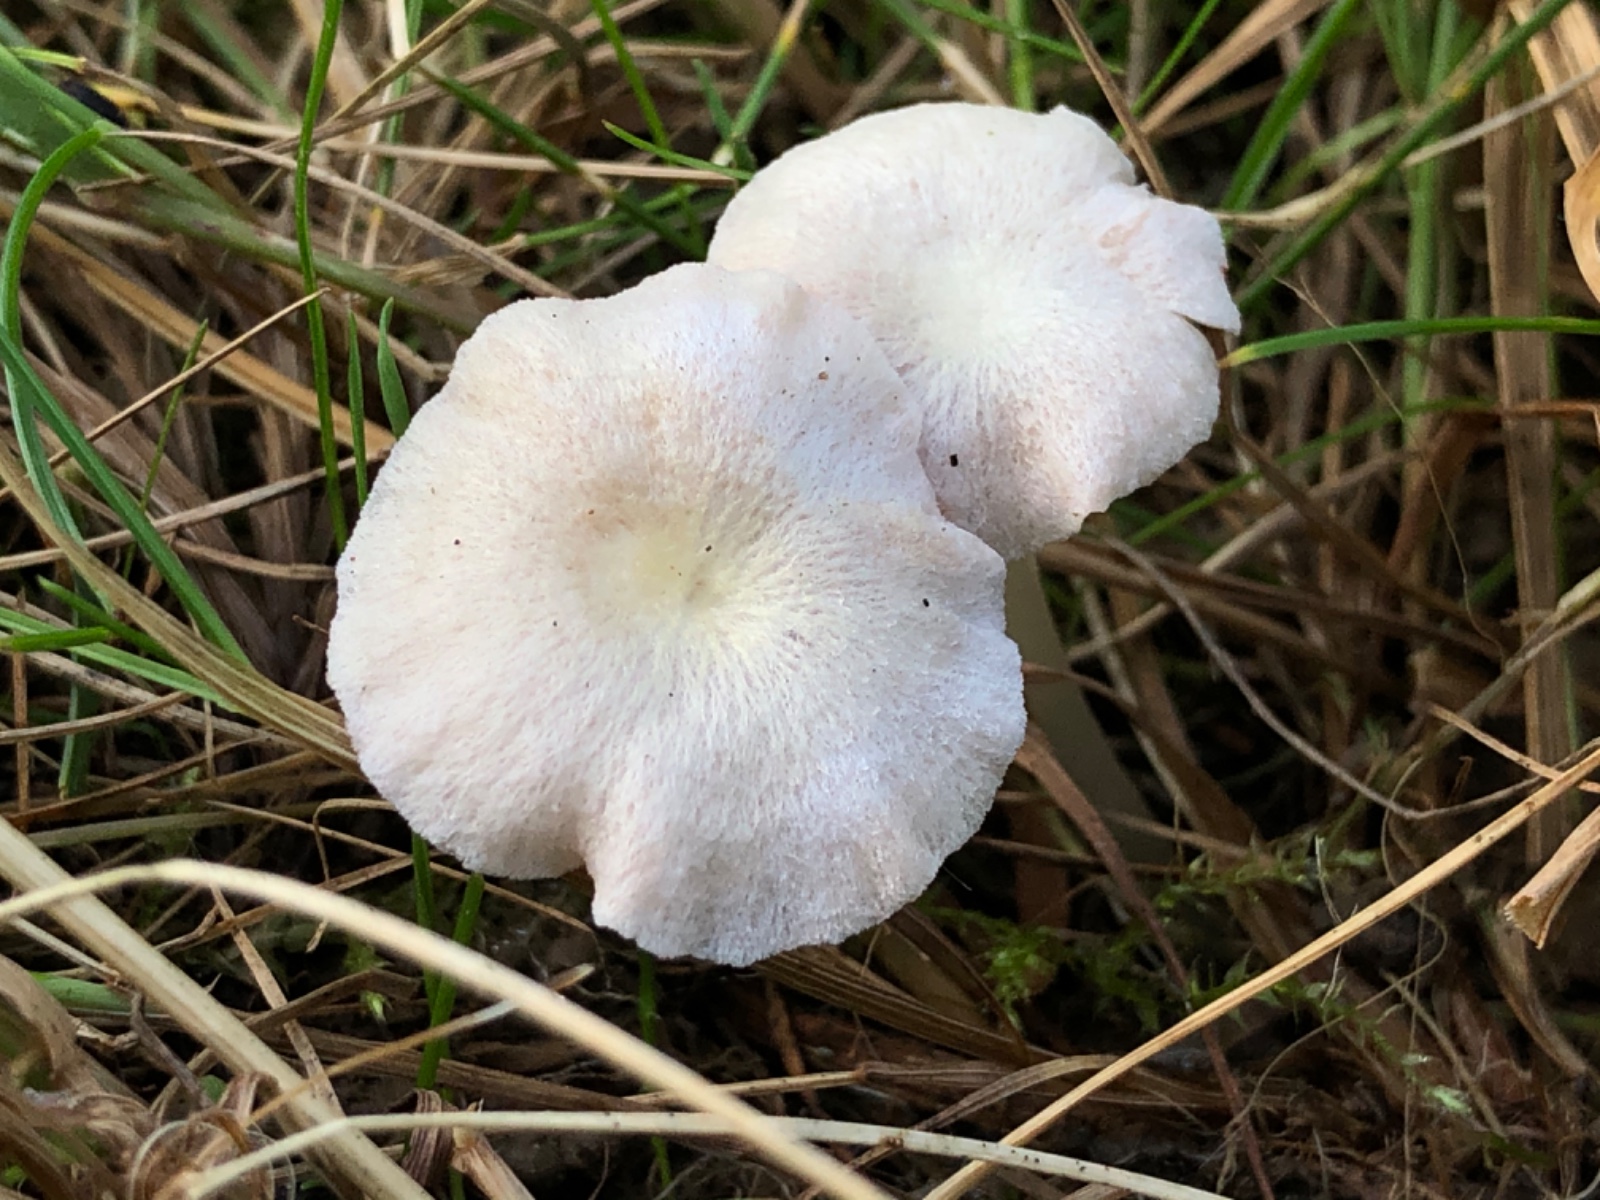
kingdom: Fungi
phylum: Basidiomycota
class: Agaricomycetes
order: Agaricales
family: Entolomataceae
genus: Entoloma
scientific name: Entoloma sericellum
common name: silkehvid rødblad
